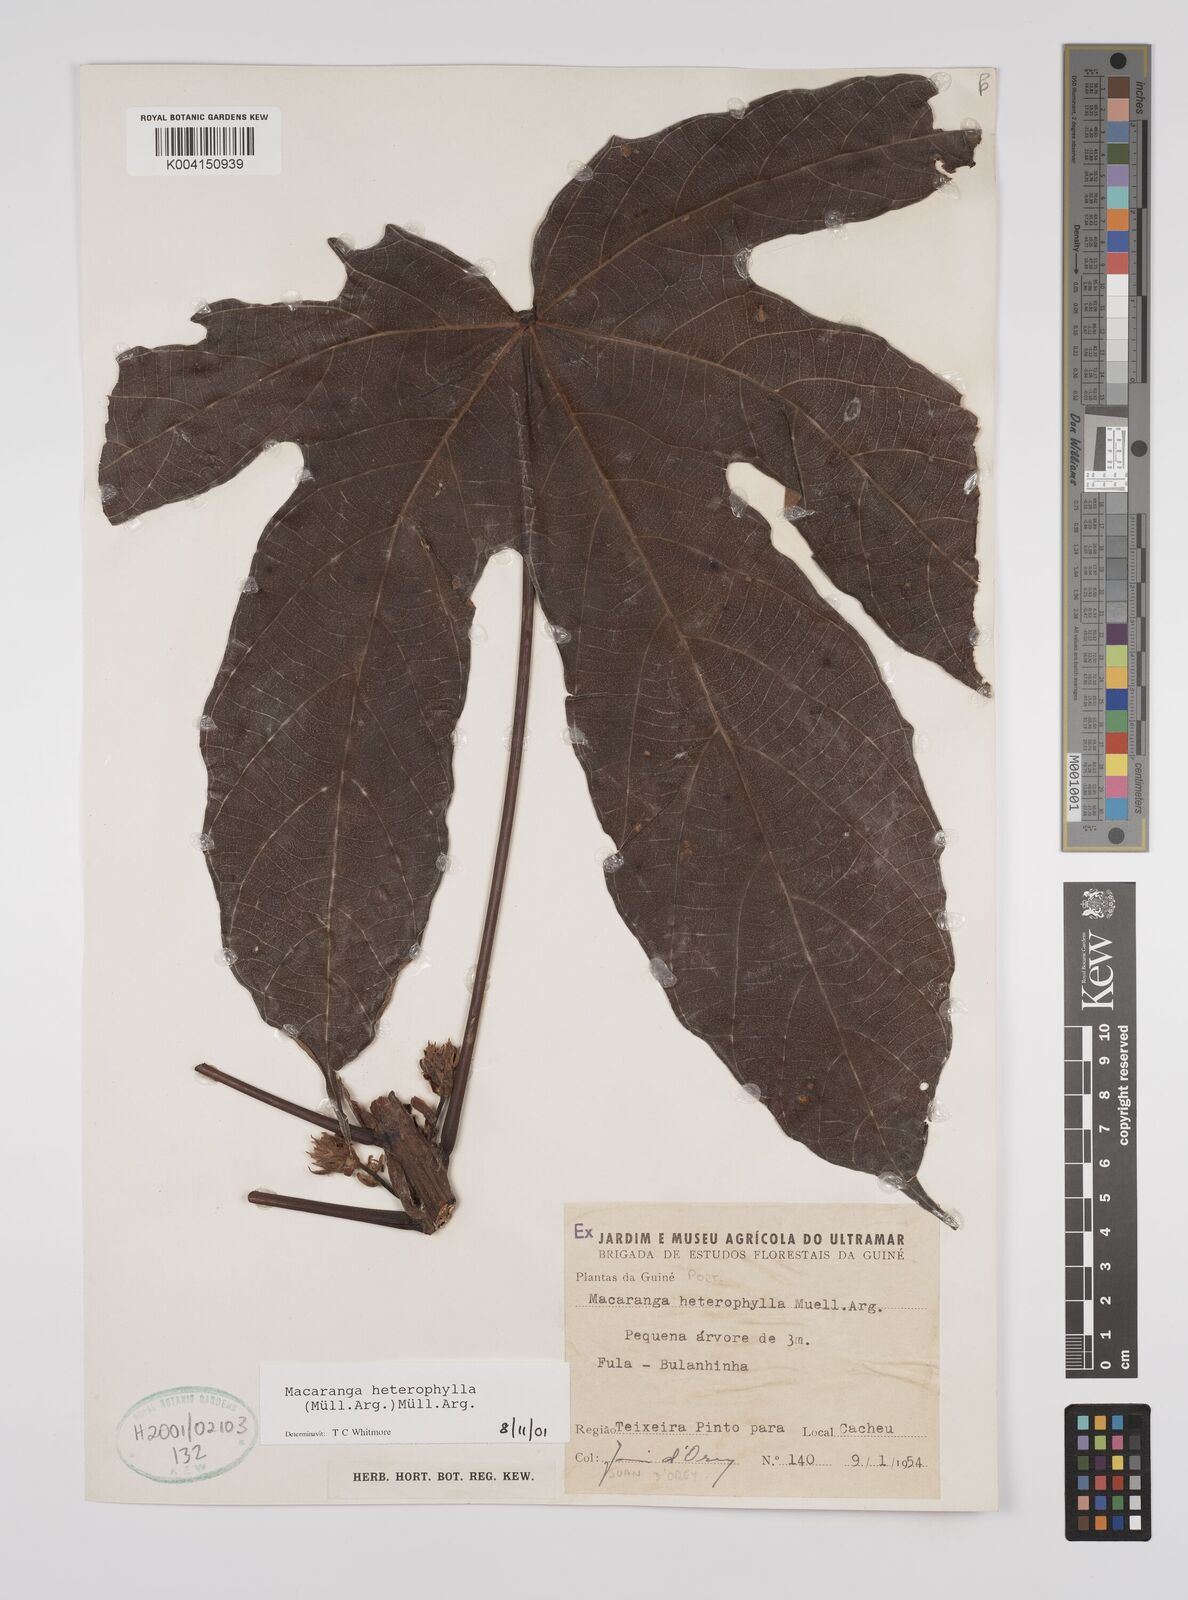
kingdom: Plantae
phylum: Tracheophyta
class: Magnoliopsida
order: Malpighiales
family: Euphorbiaceae
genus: Macaranga
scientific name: Macaranga heterophylla
